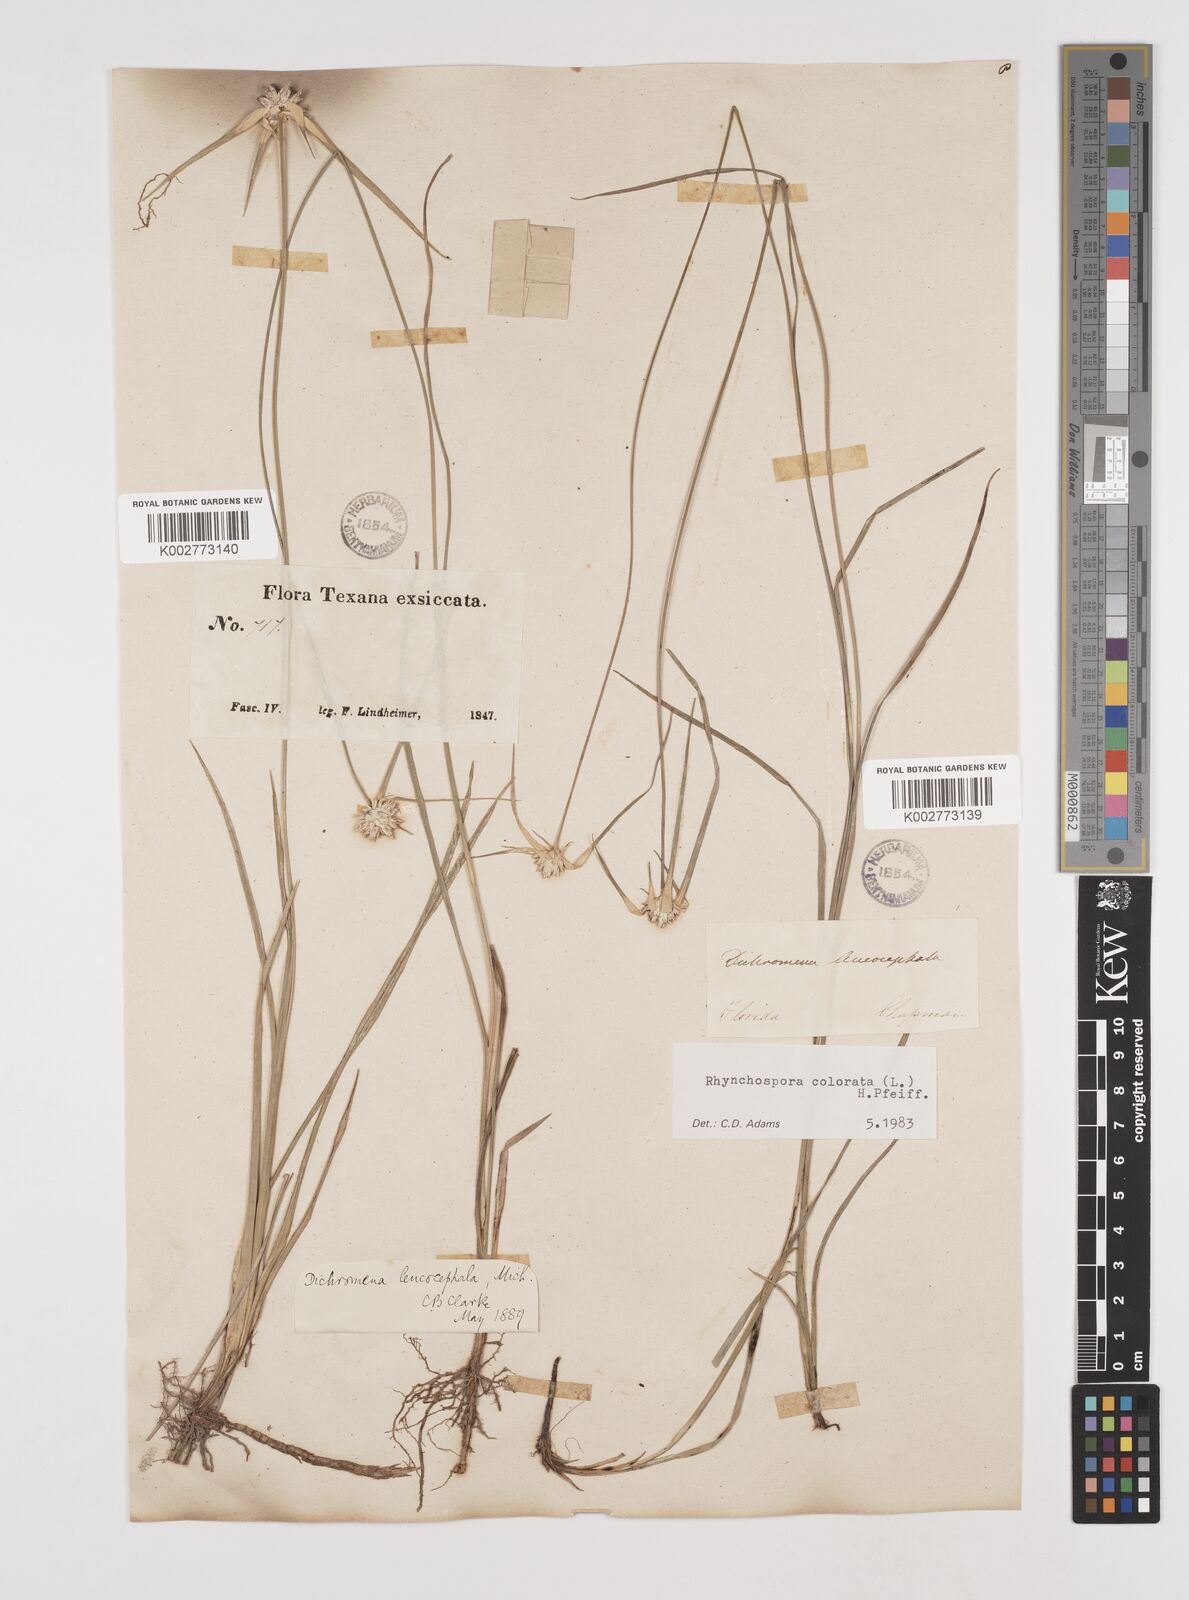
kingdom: Plantae
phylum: Tracheophyta
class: Liliopsida
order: Poales
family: Cyperaceae
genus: Rhynchospora
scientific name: Rhynchospora colorata
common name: Star sedge
